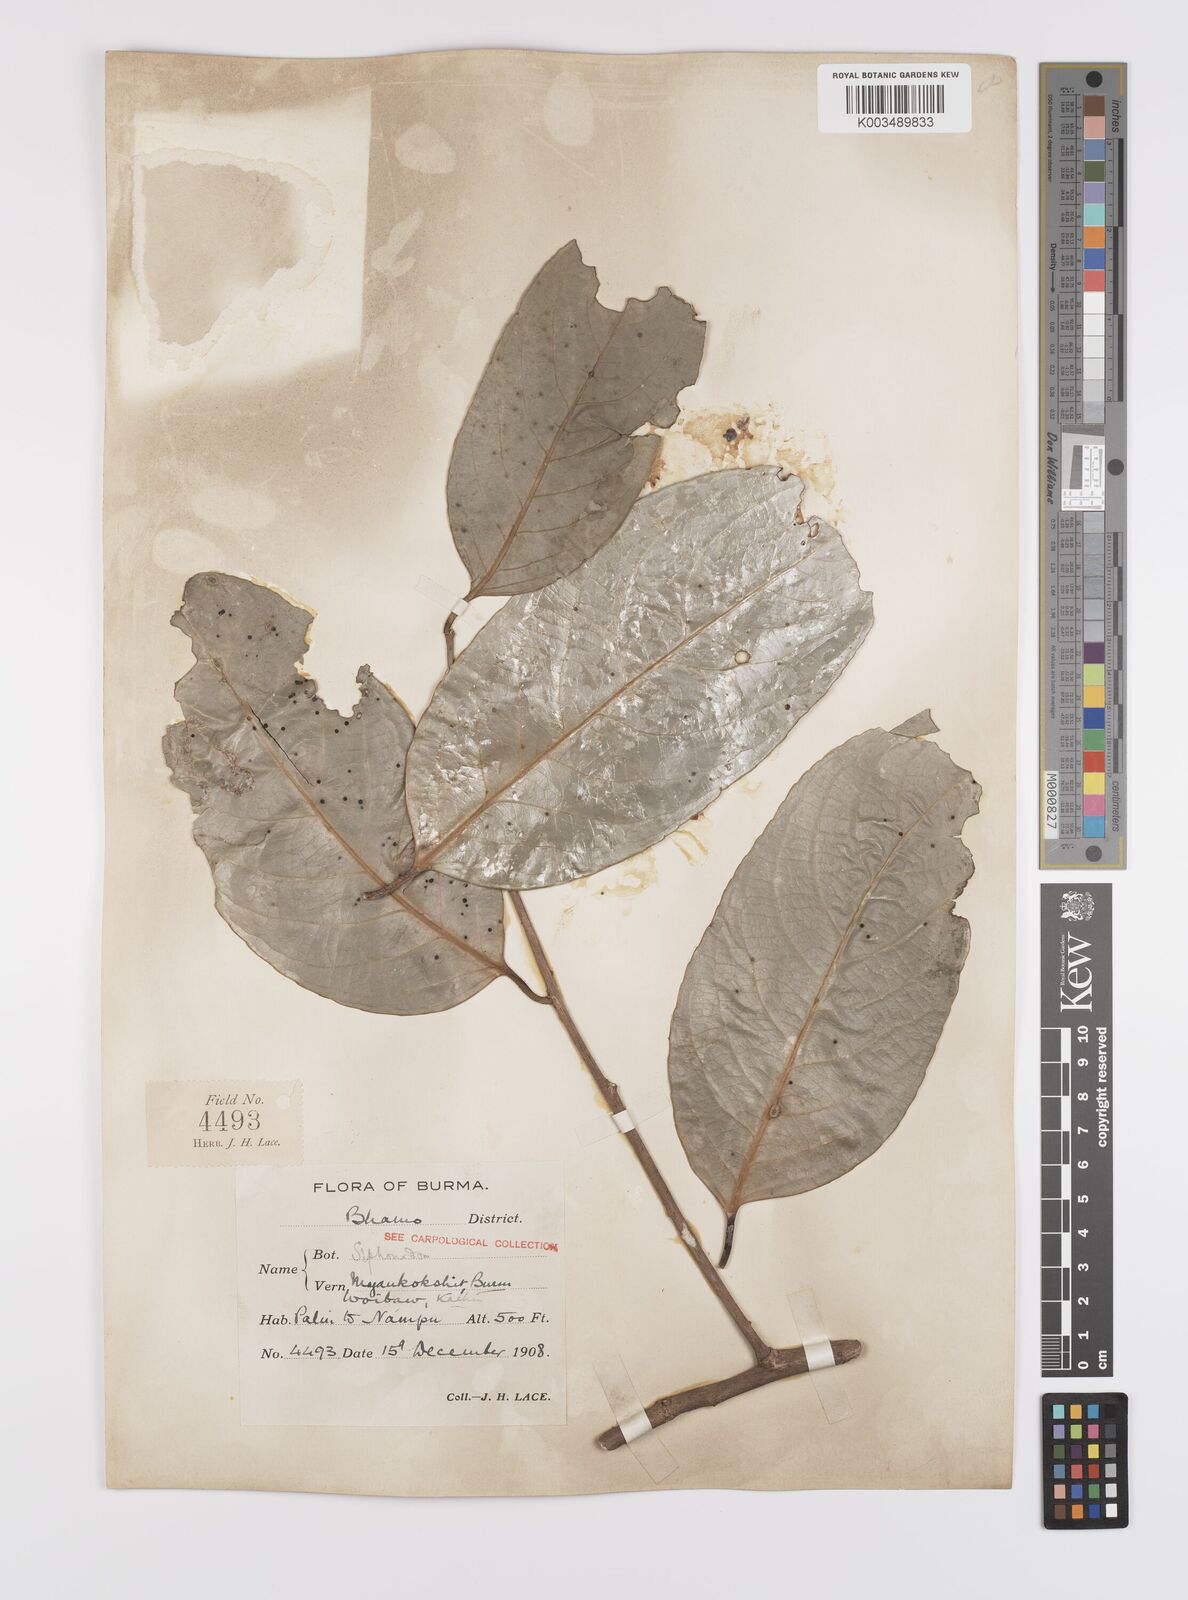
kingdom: Plantae
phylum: Tracheophyta
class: Magnoliopsida
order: Celastrales
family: Celastraceae
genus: Siphonodon
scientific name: Siphonodon celastrineus
